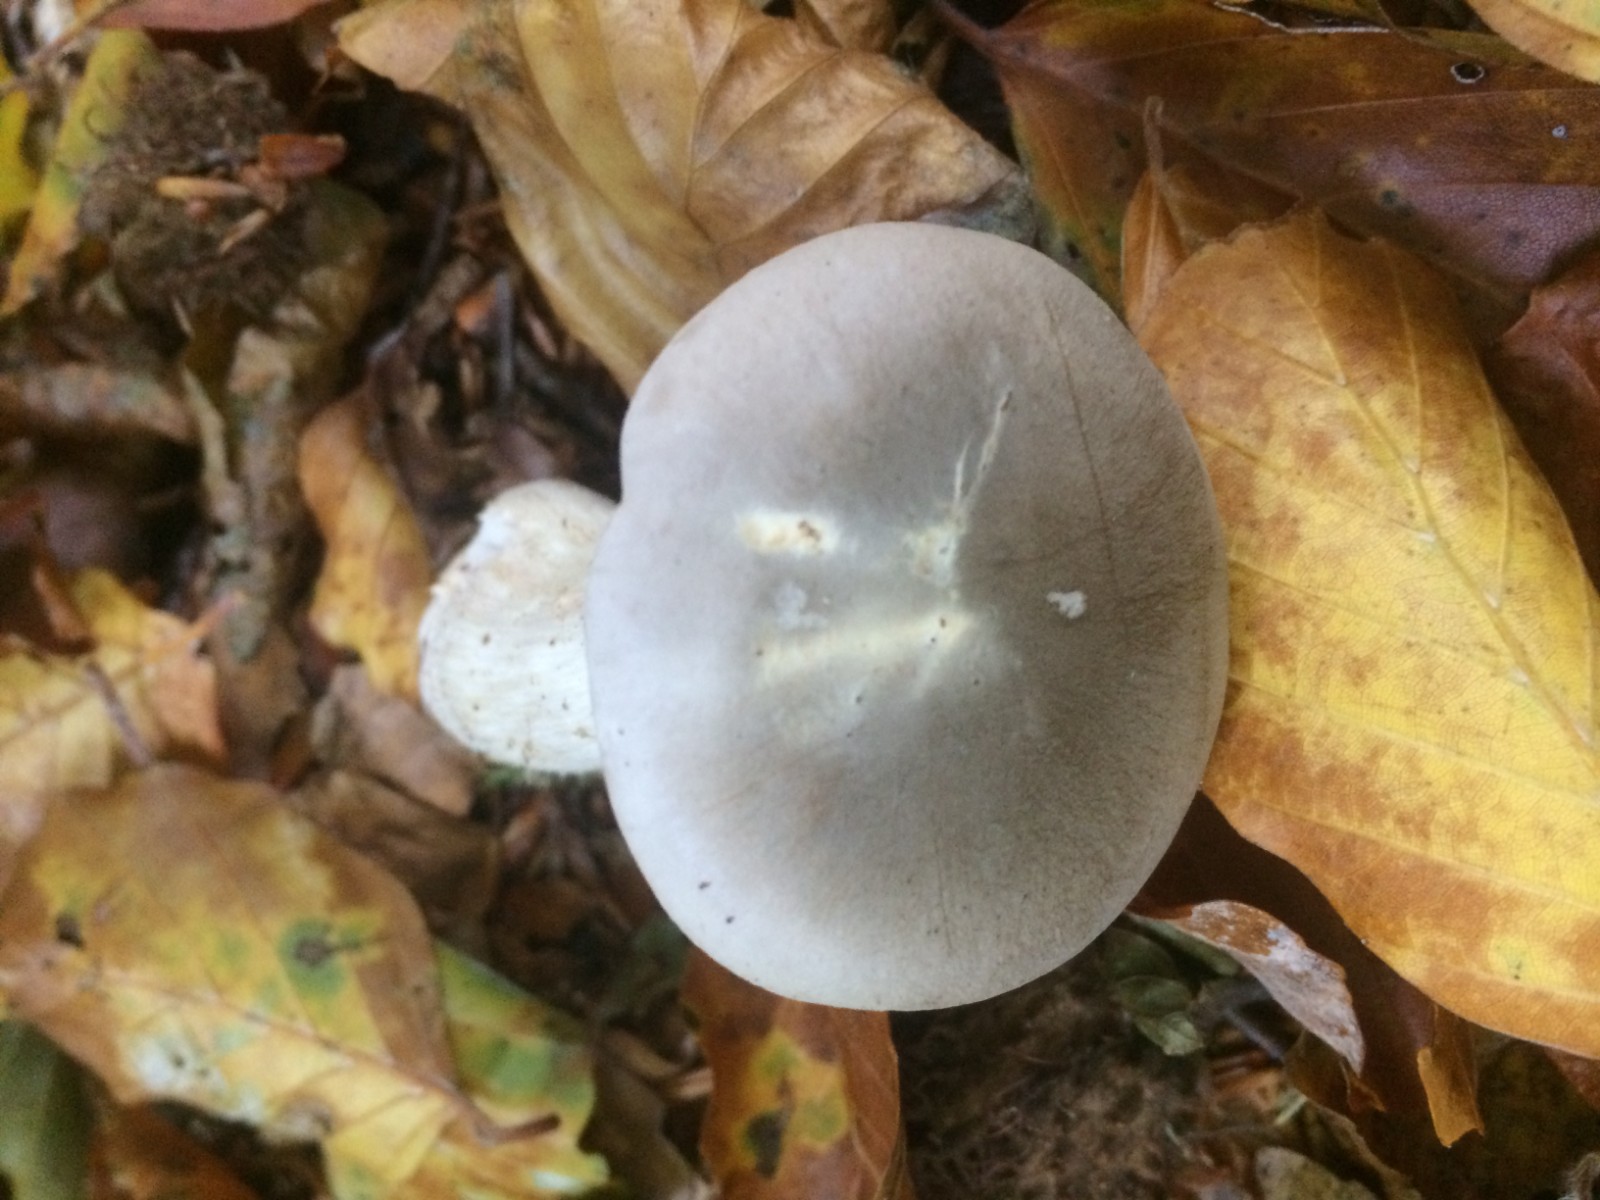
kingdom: Fungi
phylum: Basidiomycota
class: Agaricomycetes
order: Agaricales
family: Tricholomataceae
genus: Clitocybe
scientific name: Clitocybe nebularis
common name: tåge-tragthat
